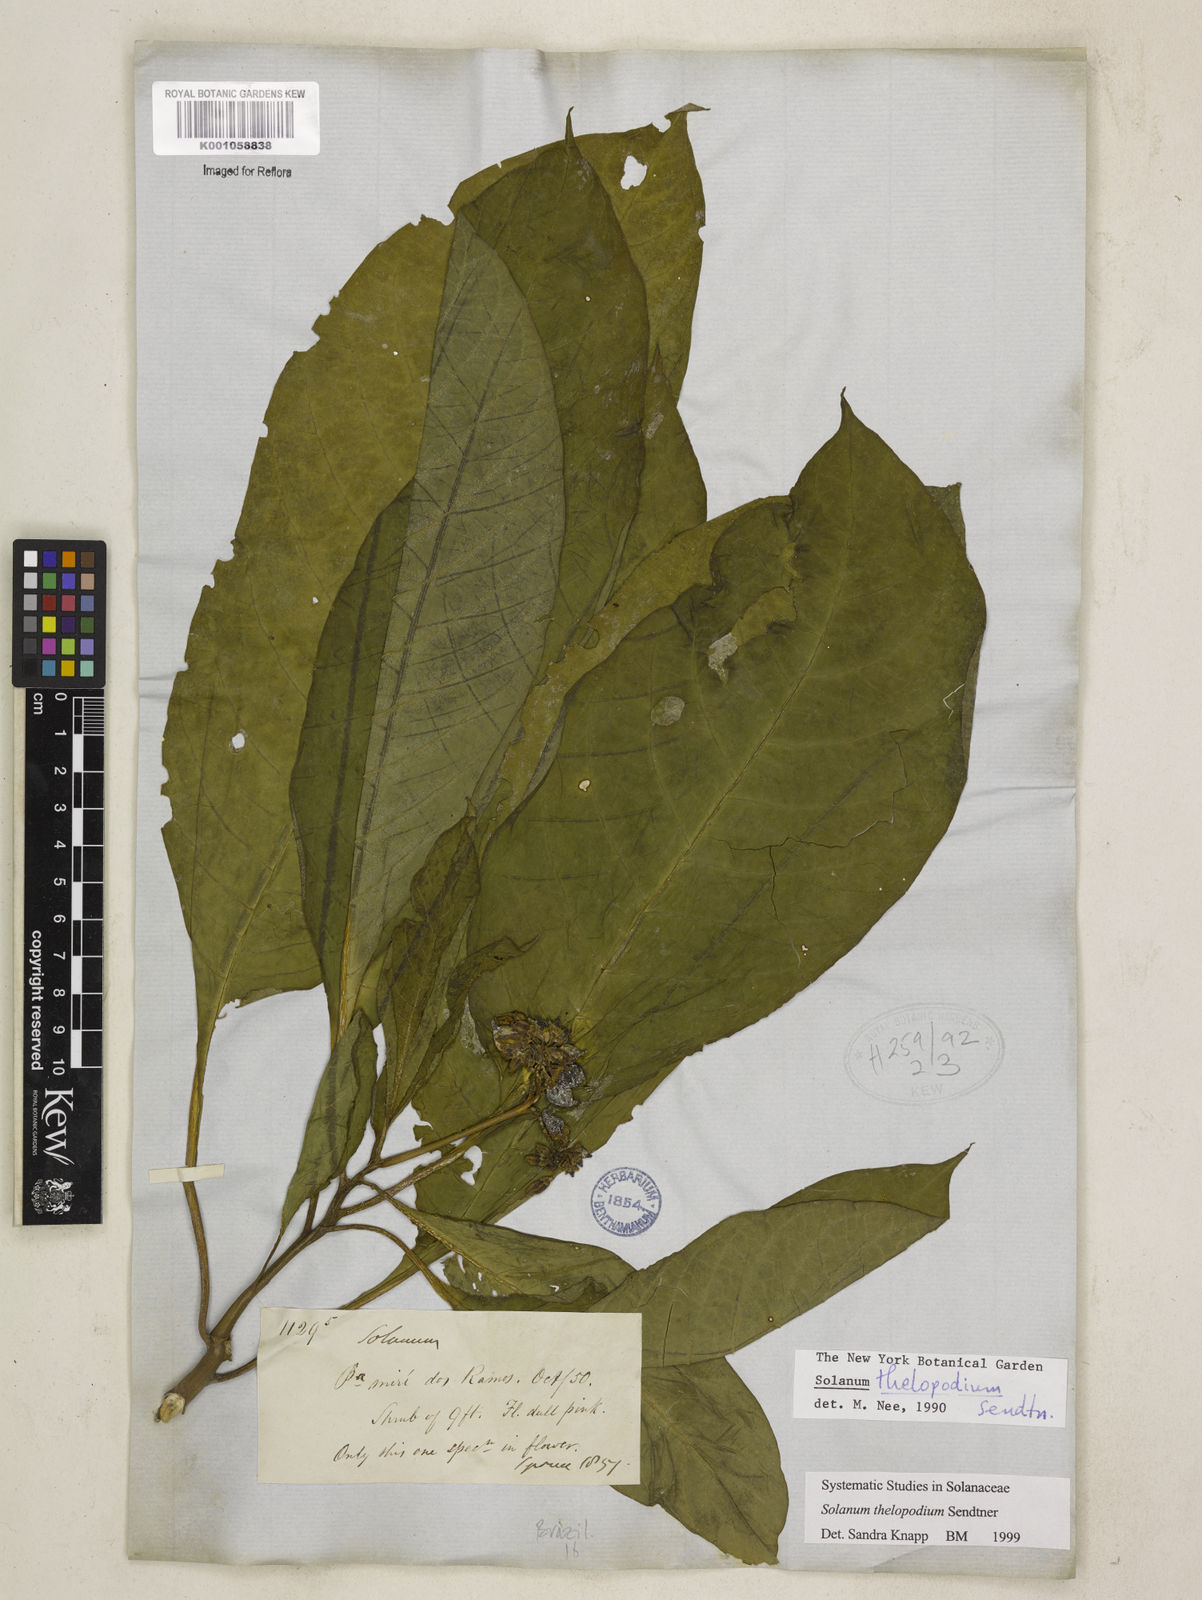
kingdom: Plantae
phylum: Tracheophyta
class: Magnoliopsida
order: Solanales
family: Solanaceae
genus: Solanum
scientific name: Solanum thelopodium
